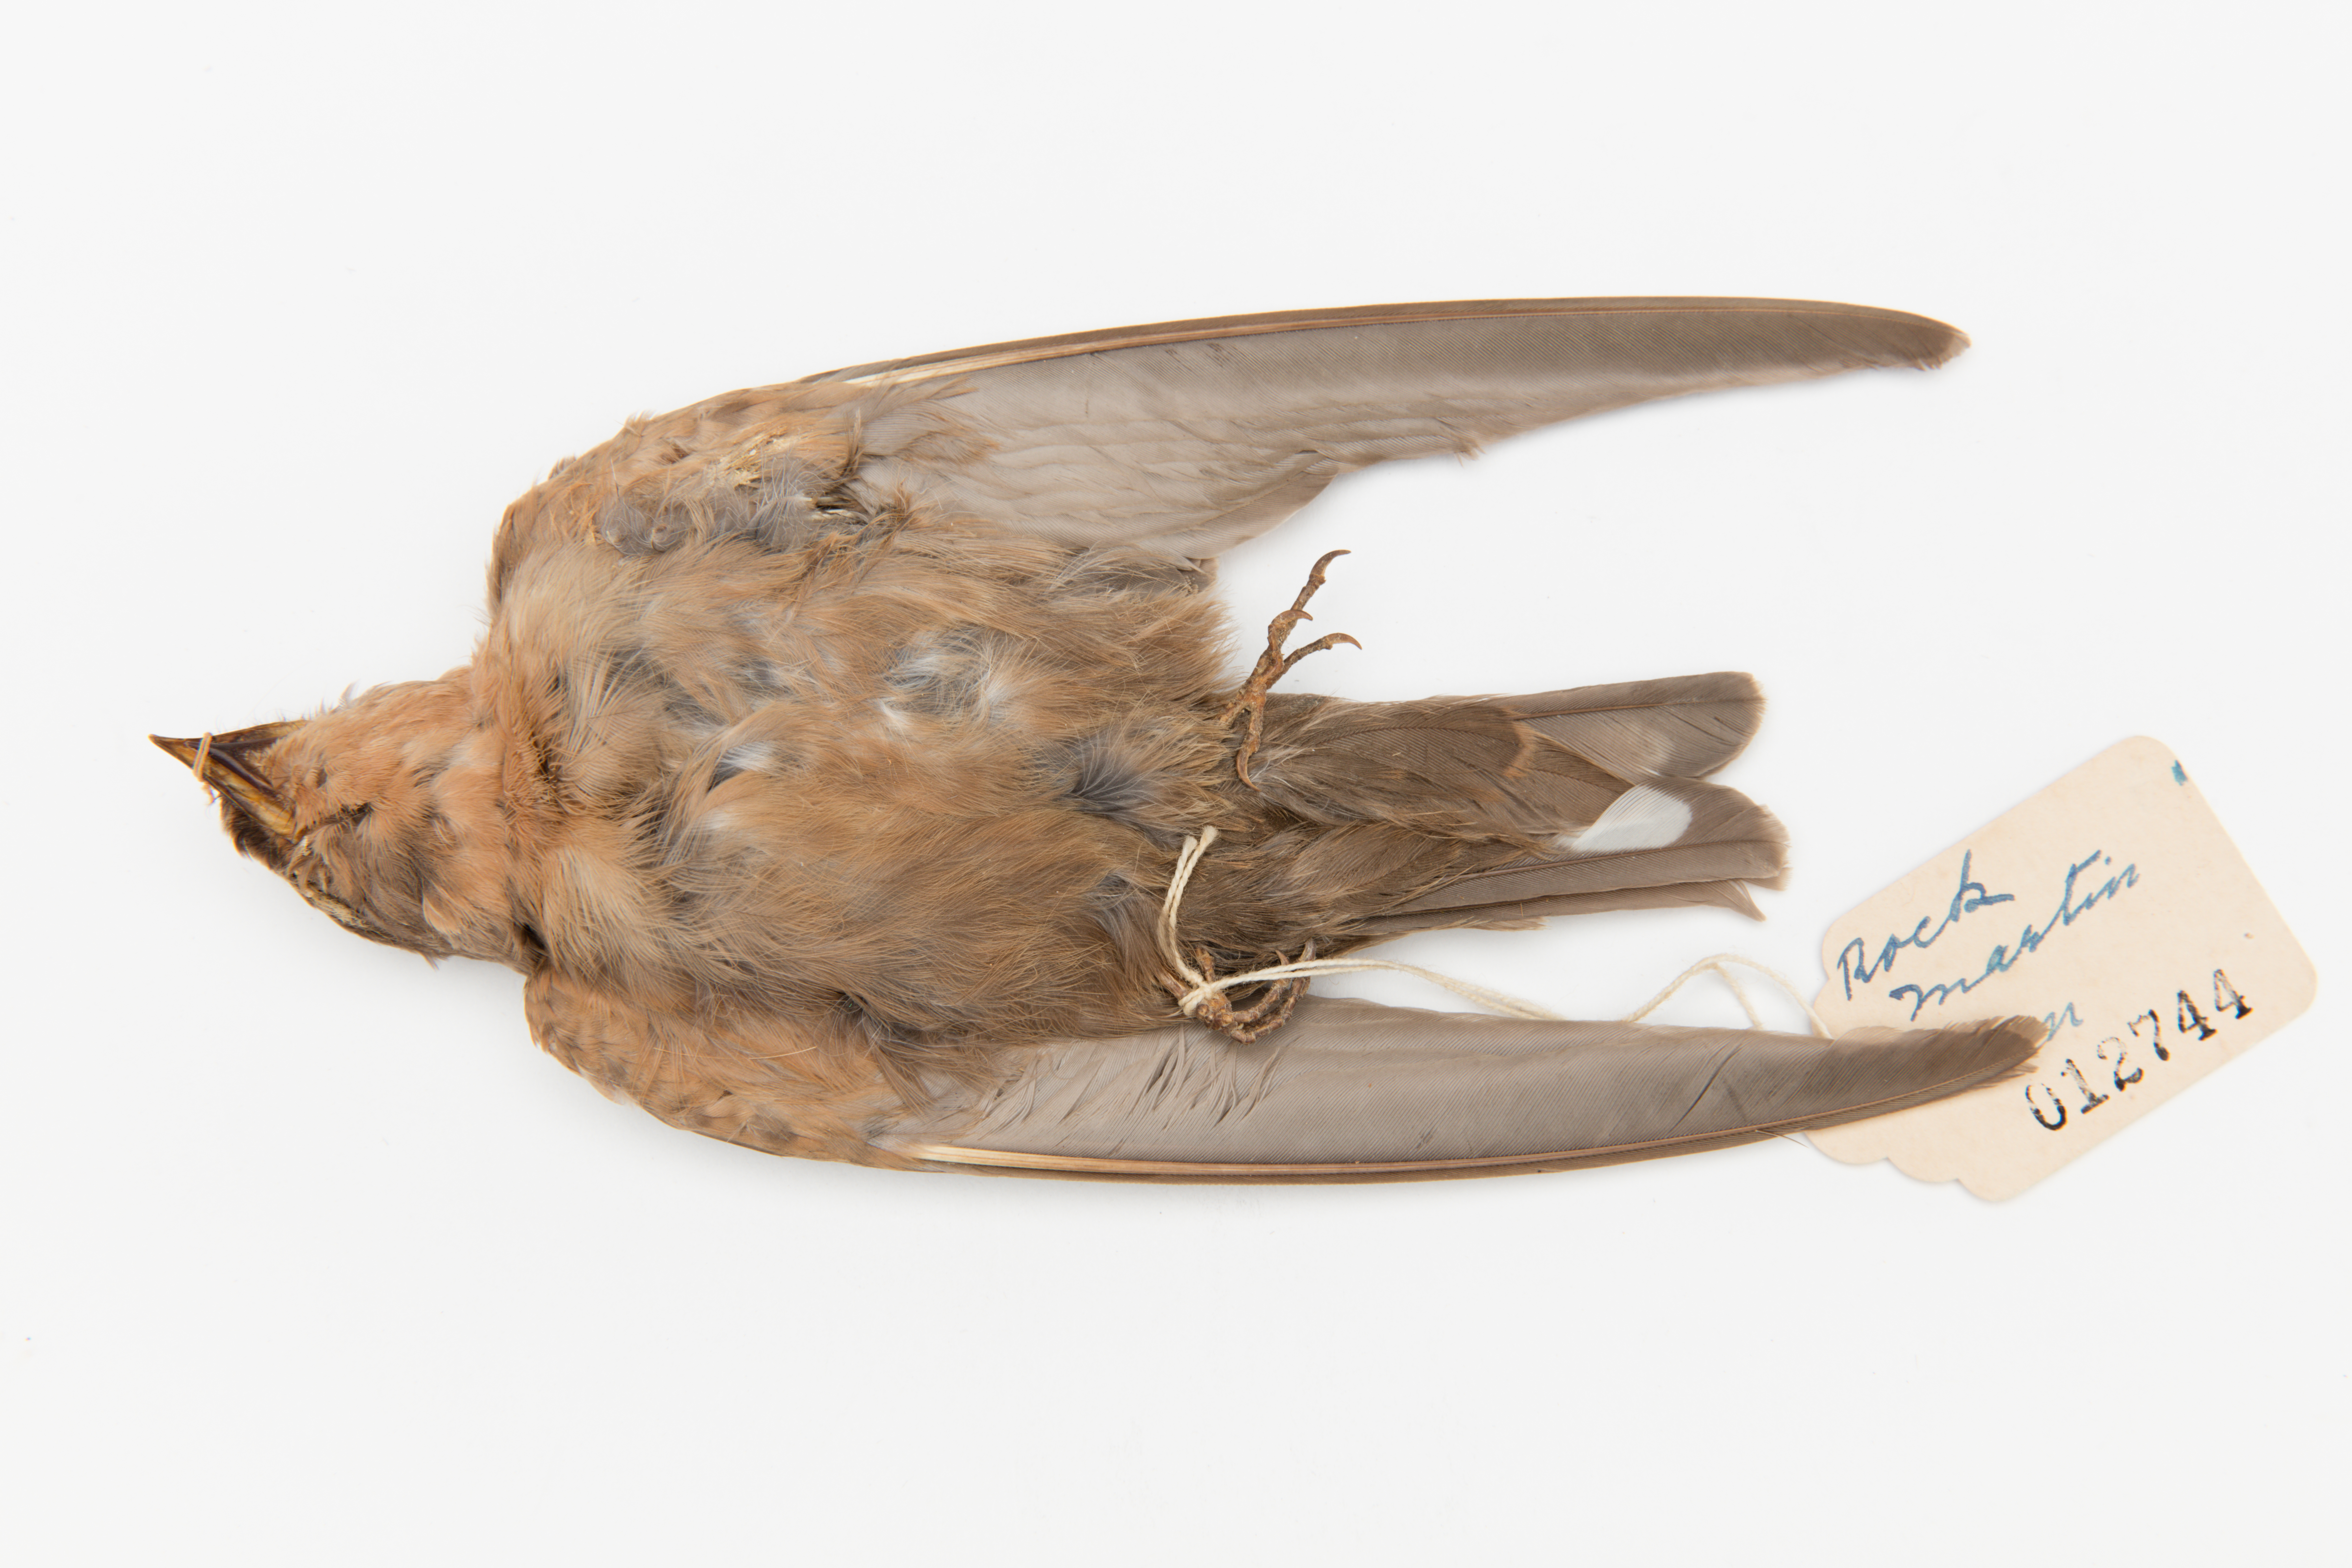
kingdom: Animalia
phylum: Chordata
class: Aves
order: Passeriformes
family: Hirundinidae
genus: Ptyonoprogne
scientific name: Ptyonoprogne fuligula
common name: Rock martin
